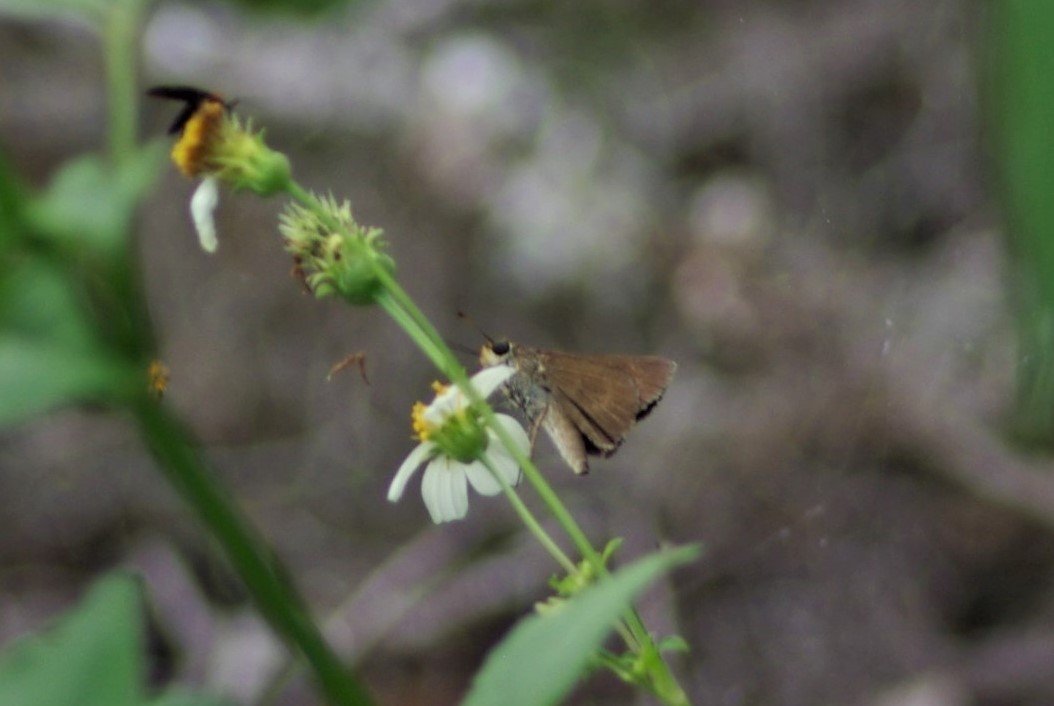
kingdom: Animalia
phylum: Arthropoda
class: Insecta
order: Lepidoptera
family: Hesperiidae
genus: Polites
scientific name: Polites egeremet
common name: Northern Broken-Dash
